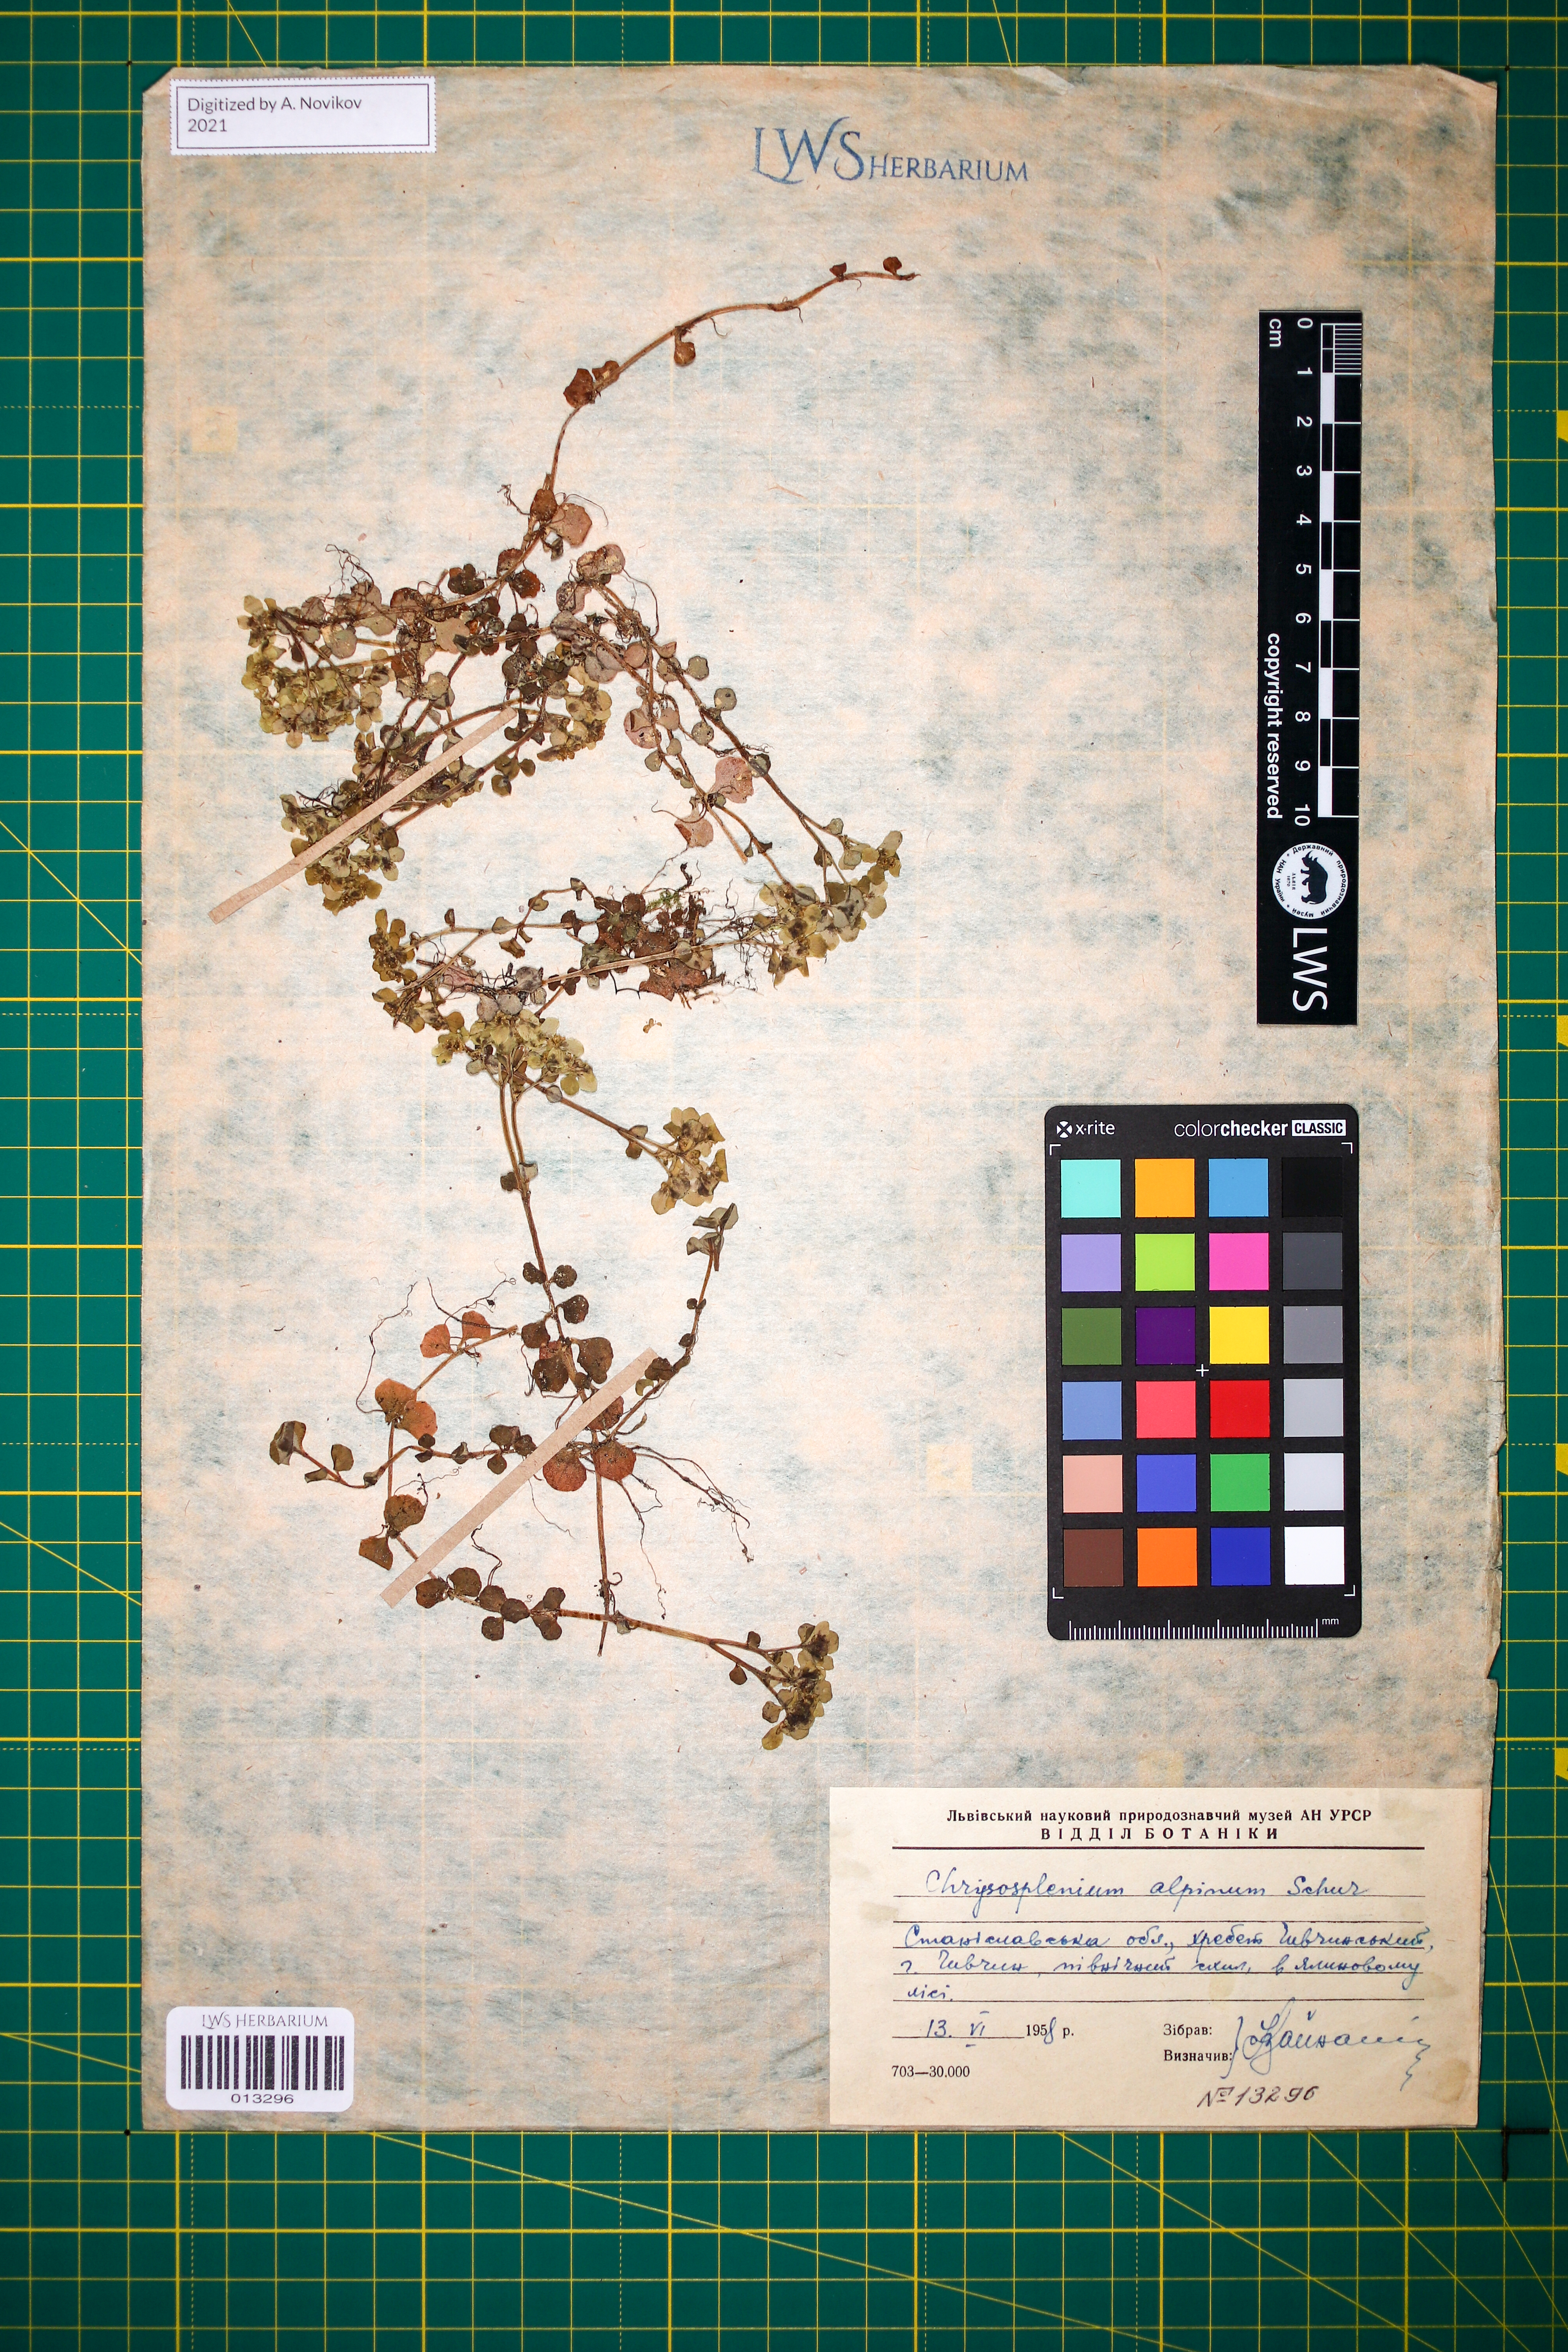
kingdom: Plantae
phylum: Tracheophyta
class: Magnoliopsida
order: Saxifragales
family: Saxifragaceae
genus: Chrysosplenium
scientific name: Chrysosplenium alpinum
